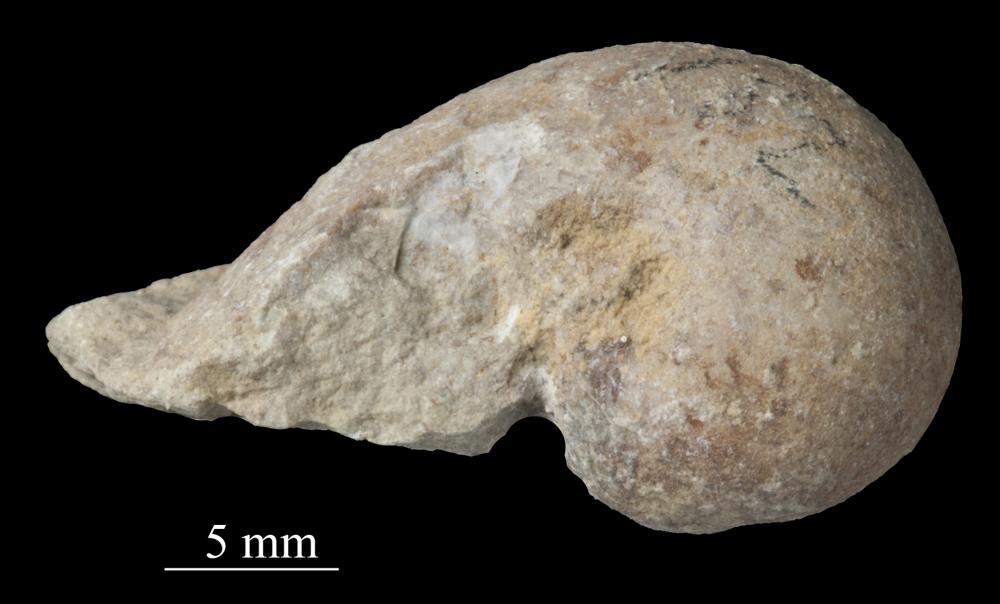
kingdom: Animalia
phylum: Mollusca
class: Gastropoda
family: Bellerophontidae
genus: Bellerophon
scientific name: Bellerophon
